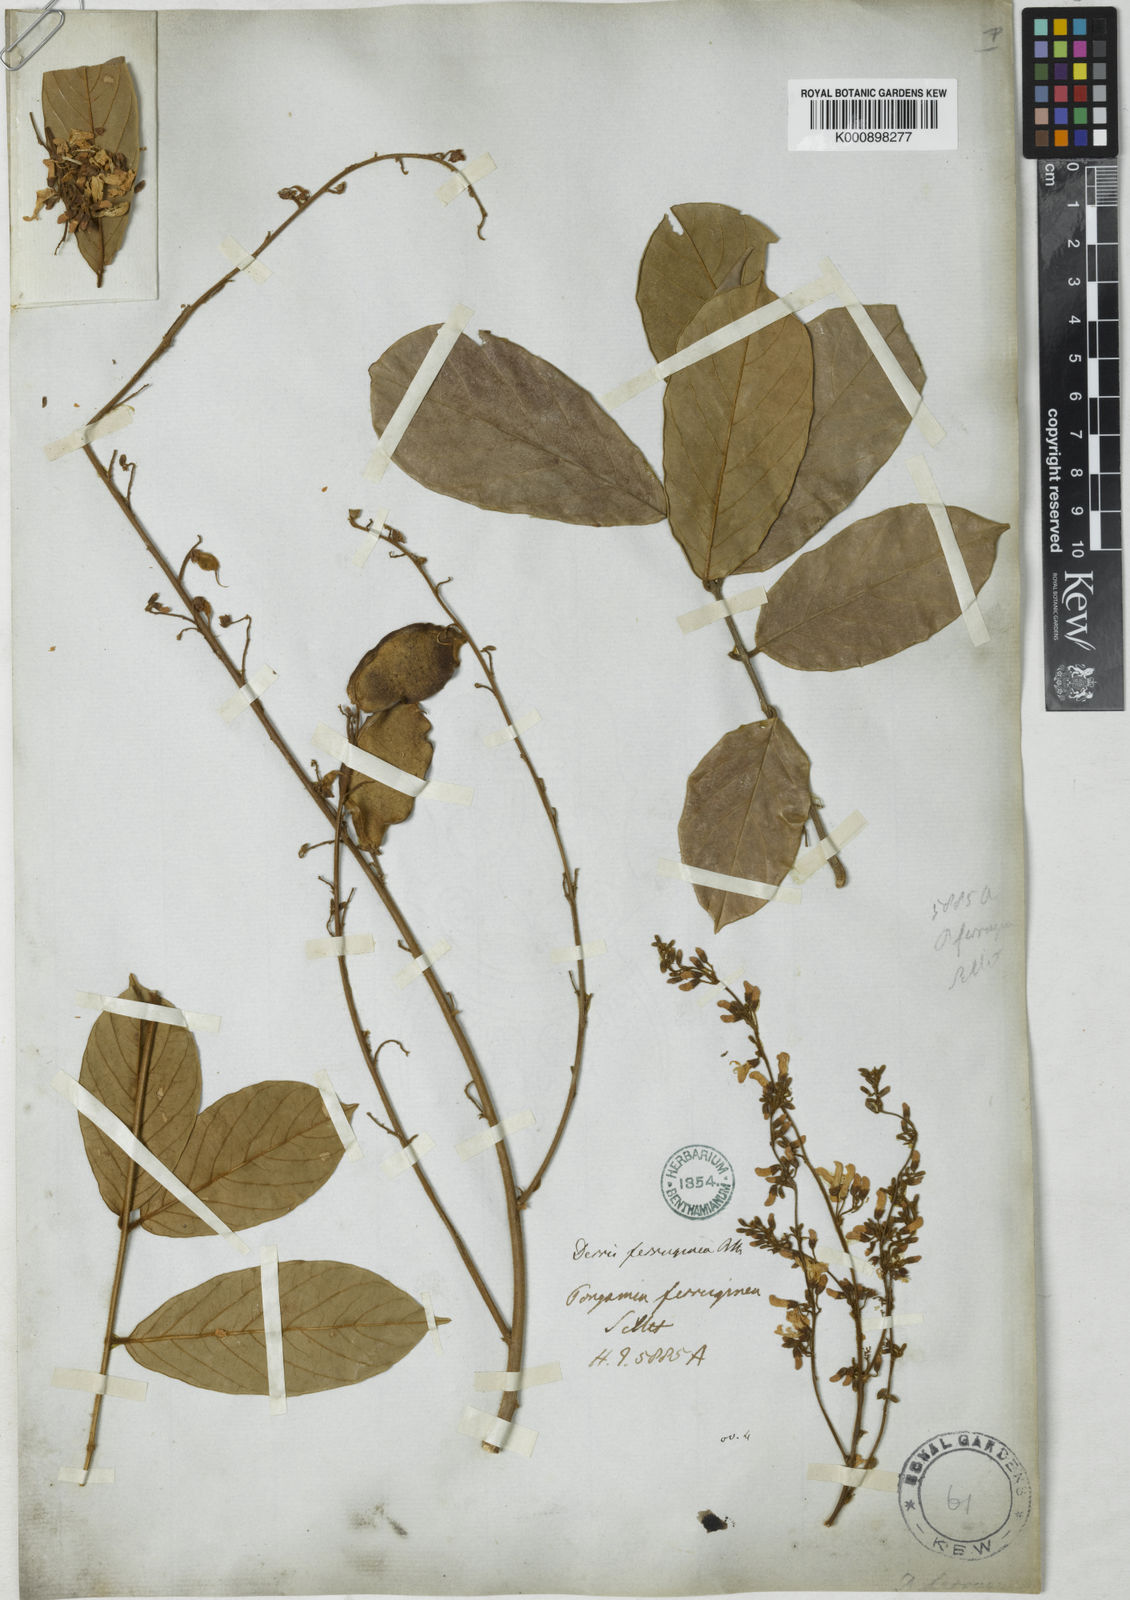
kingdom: Plantae
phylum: Tracheophyta
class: Magnoliopsida
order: Fabales
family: Fabaceae
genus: Derris
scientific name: Derris ferruginea
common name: Indian tubaroot
